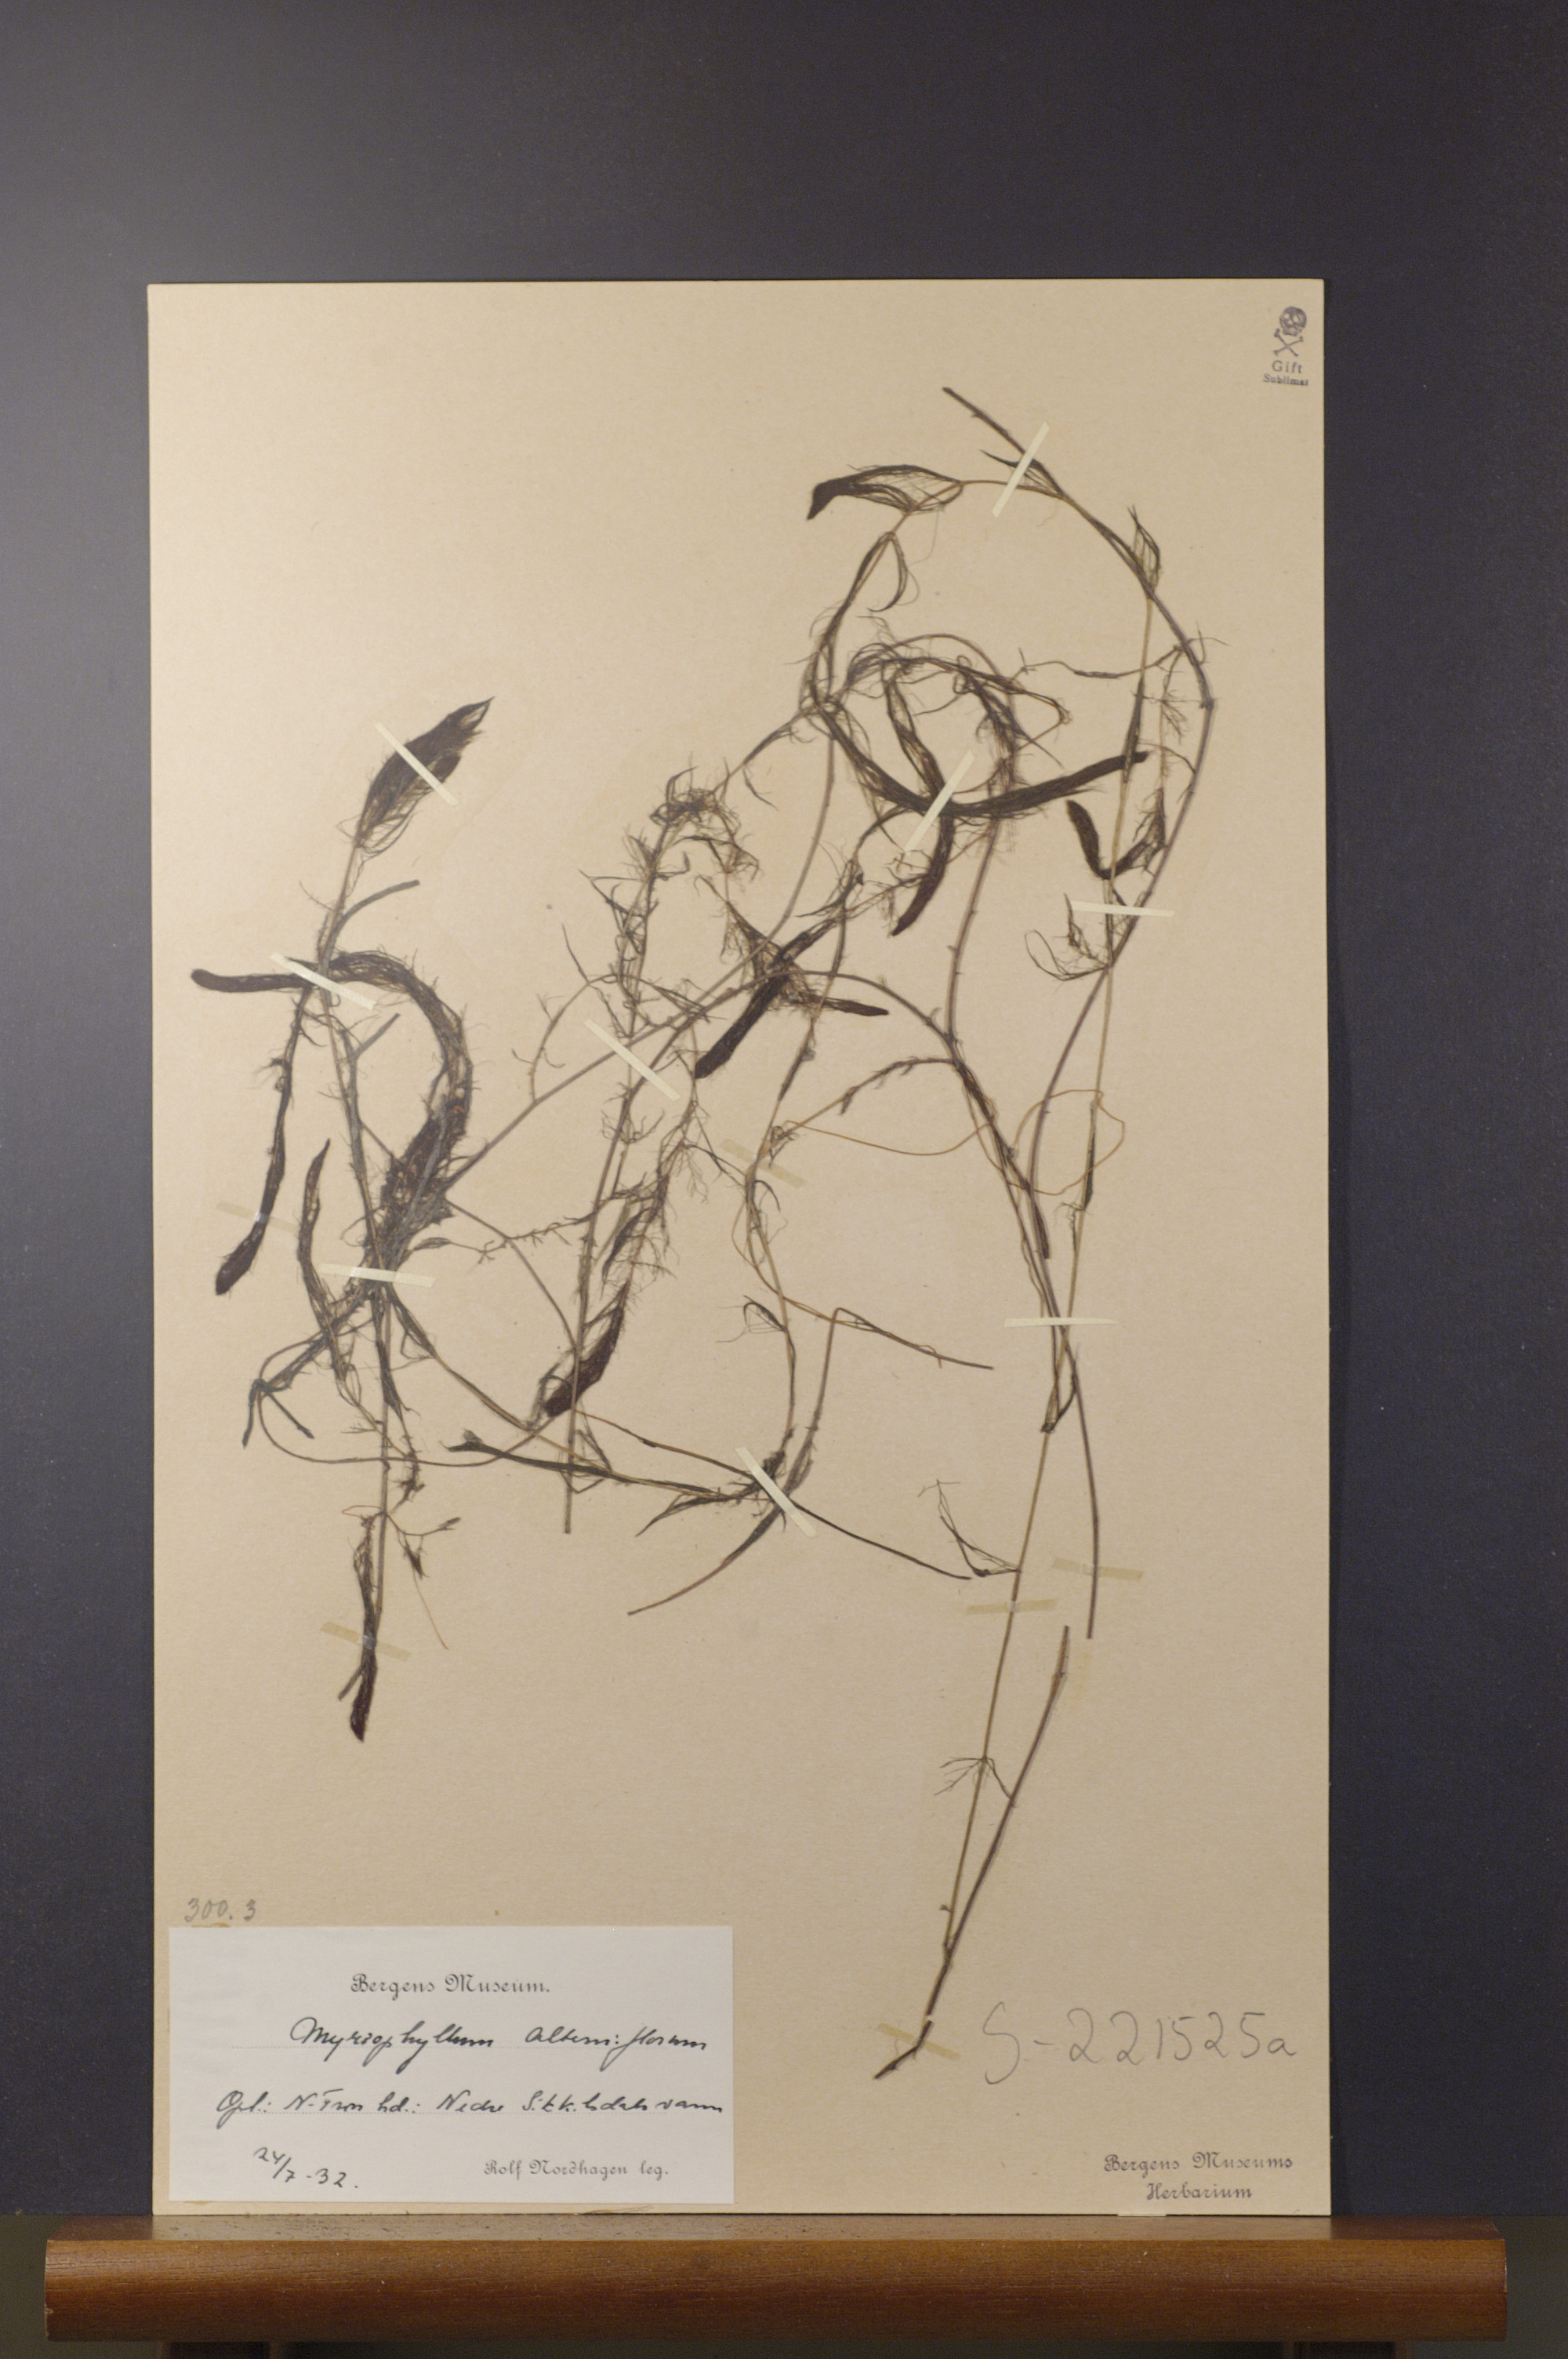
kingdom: Plantae
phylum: Tracheophyta
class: Magnoliopsida
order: Saxifragales
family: Haloragaceae
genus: Myriophyllum
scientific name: Myriophyllum alterniflorum
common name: Alternate water-milfoil
